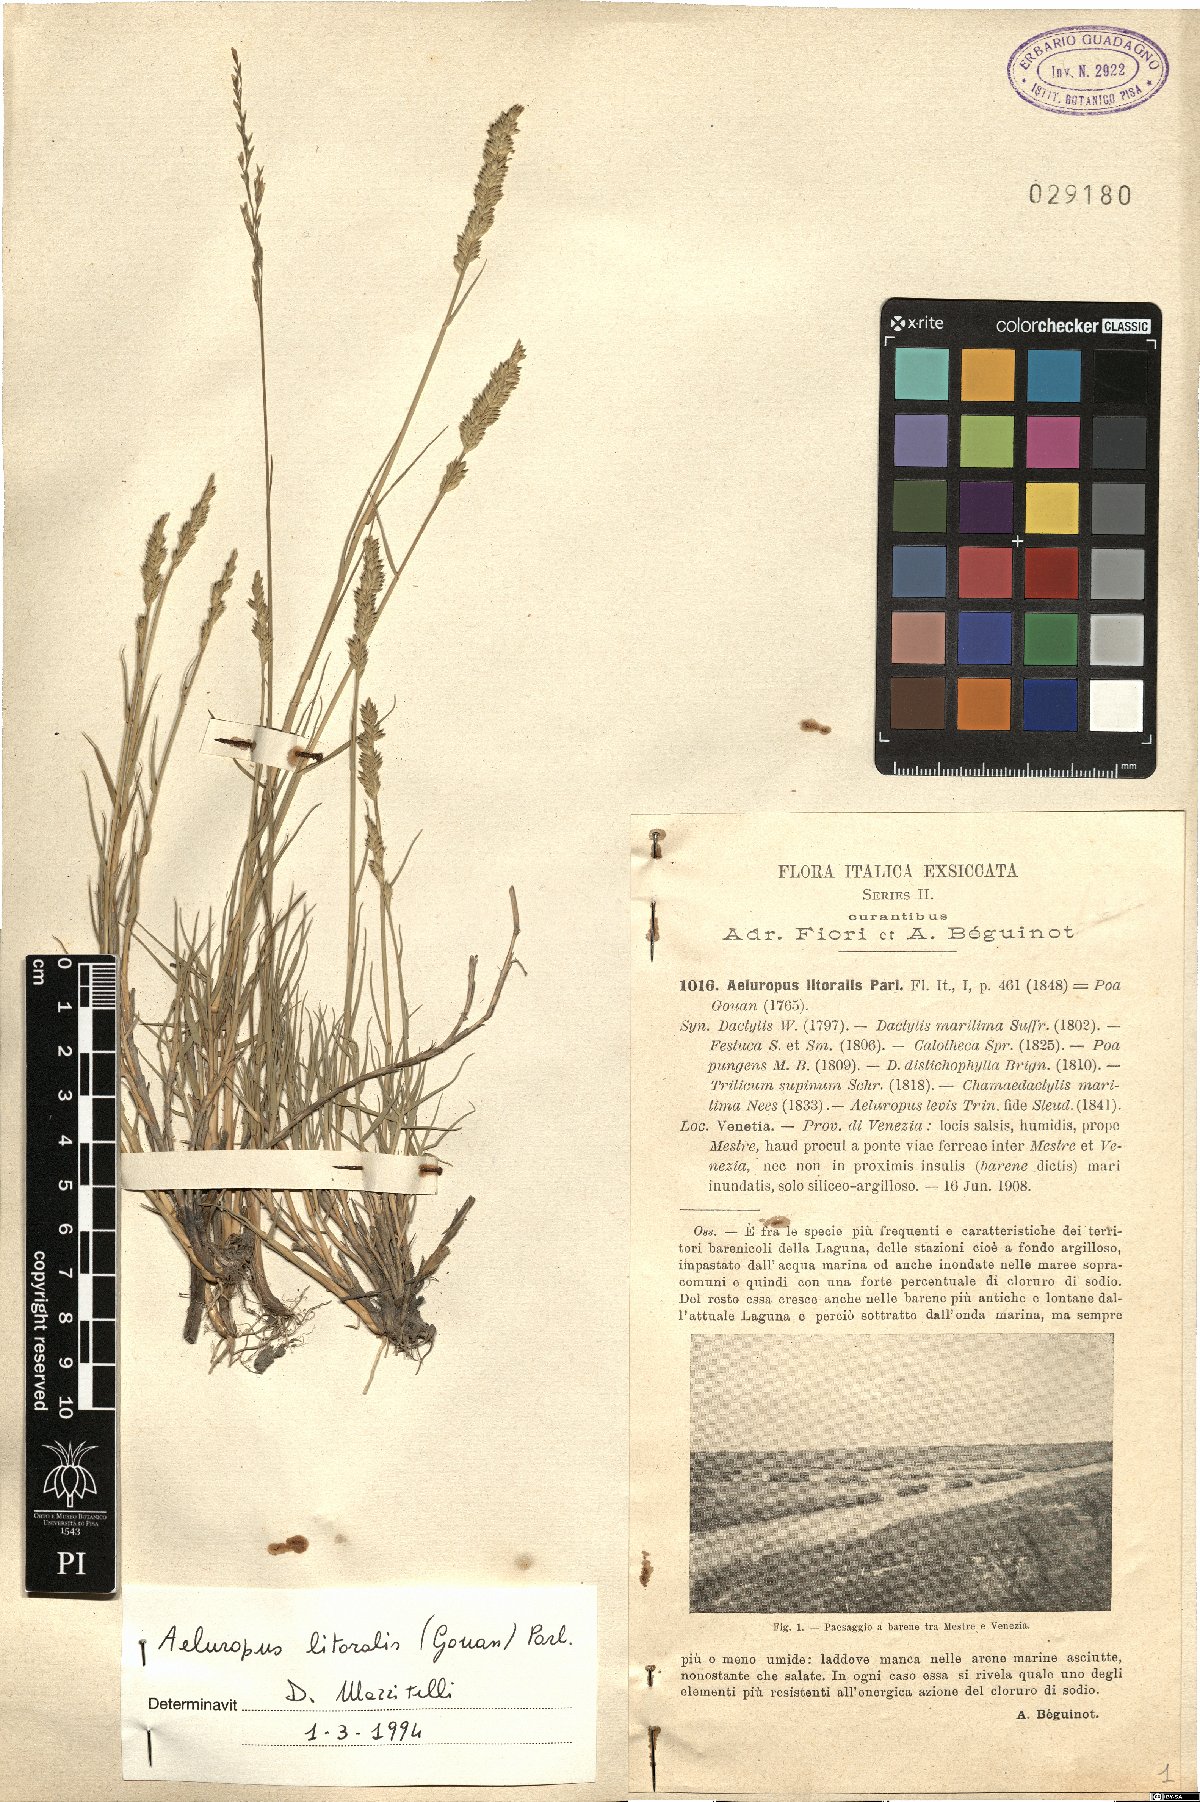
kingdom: Plantae
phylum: Tracheophyta
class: Liliopsida
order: Poales
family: Poaceae
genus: Aeluropus
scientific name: Aeluropus littoralis
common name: Indian walnut
